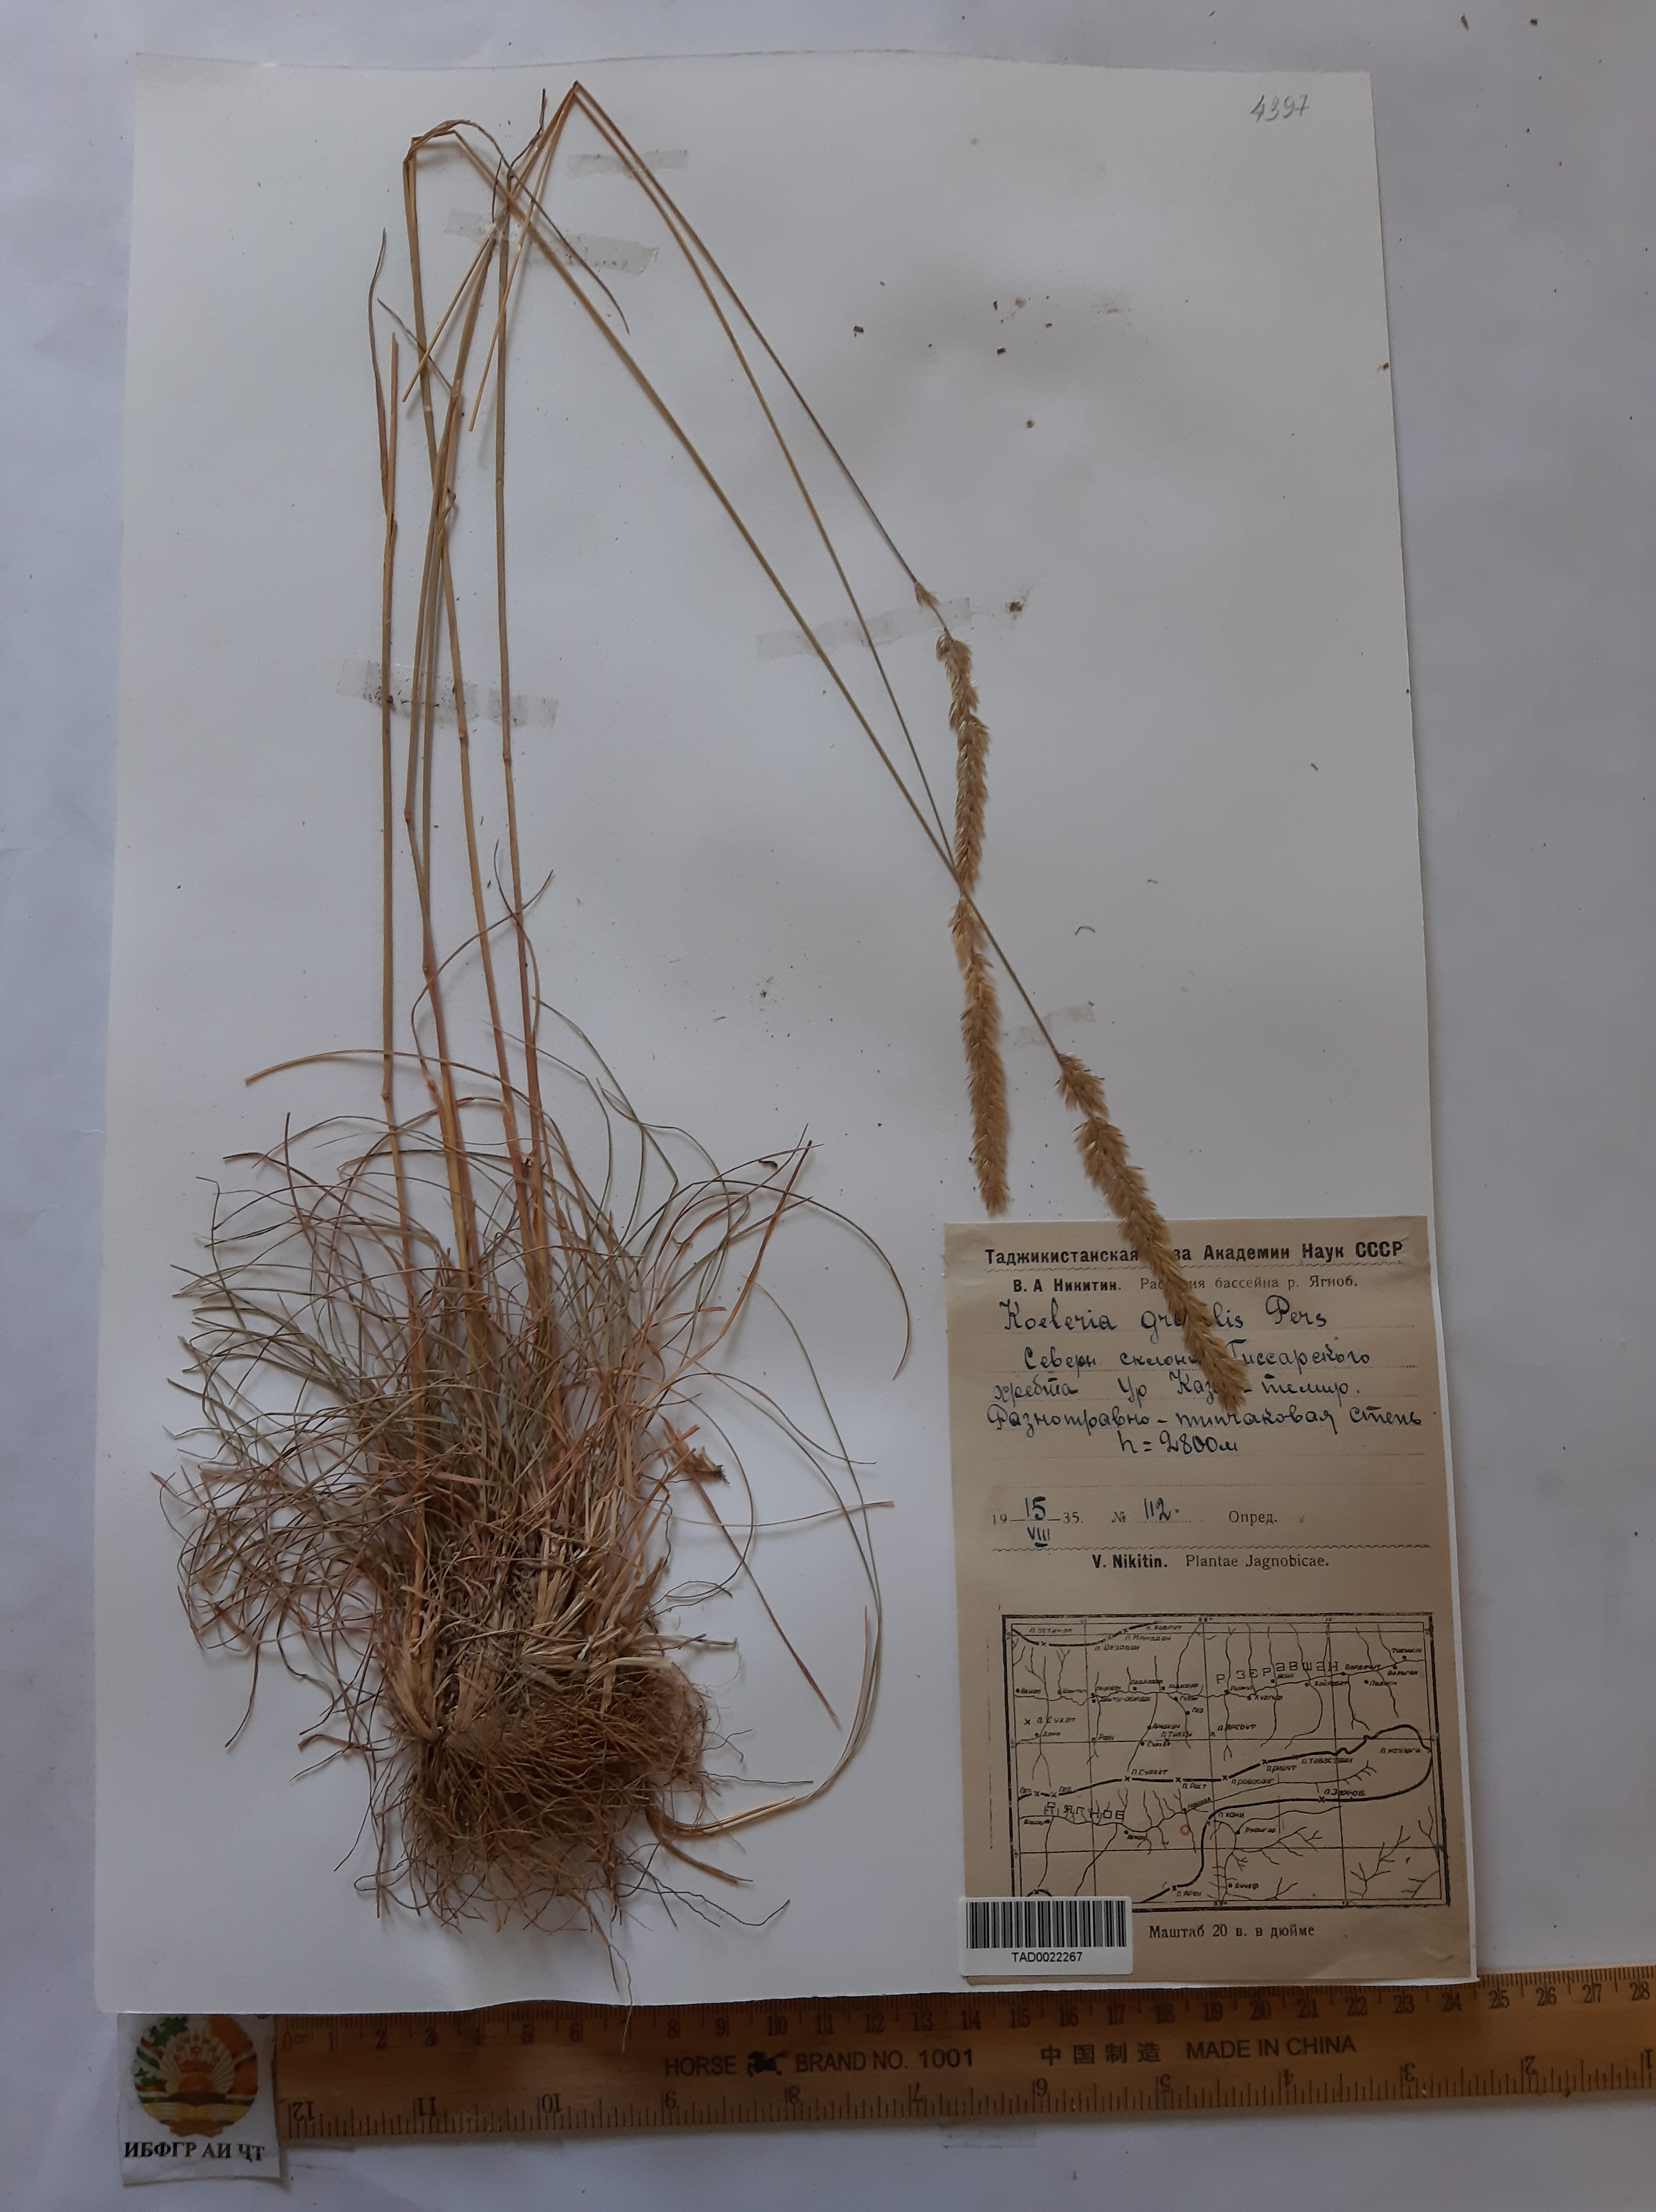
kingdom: Plantae
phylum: Tracheophyta
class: Liliopsida
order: Poales
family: Poaceae
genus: Koeleria
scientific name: Koeleria macrantha
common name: Crested hair-grass
